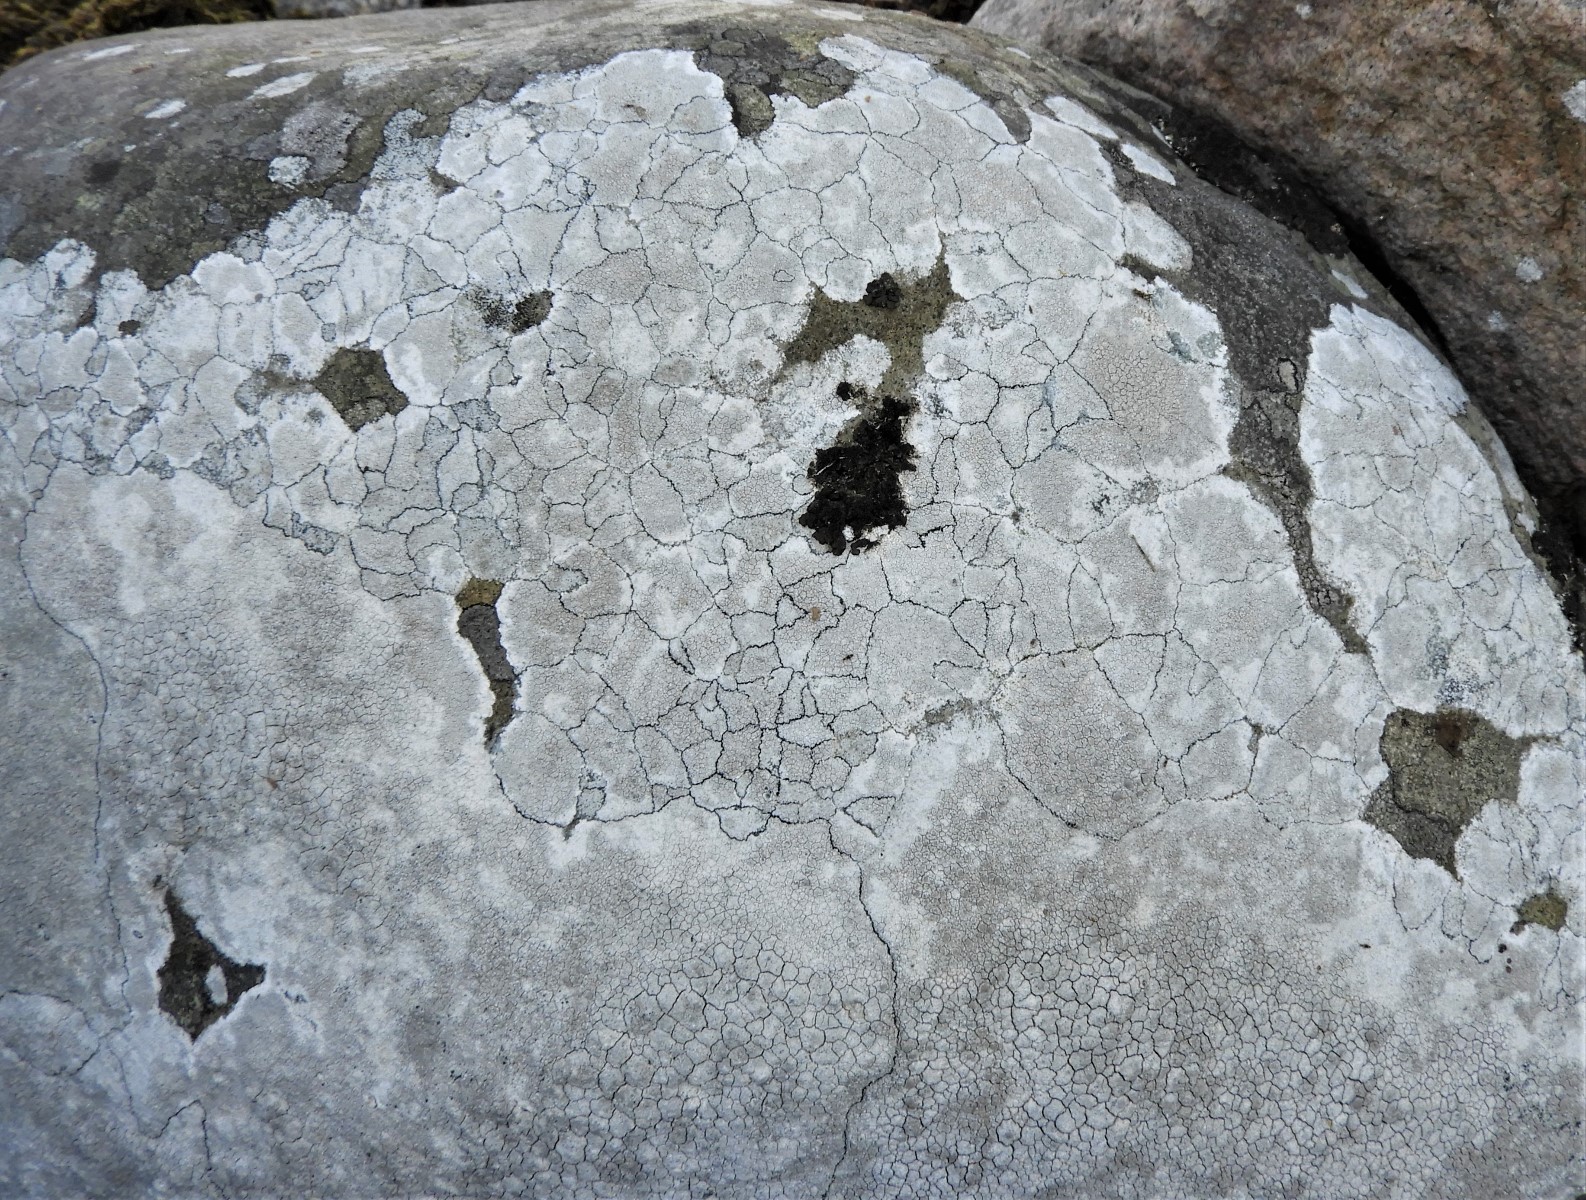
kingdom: Fungi
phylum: Ascomycota
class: Lecanoromycetes
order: Lecanorales
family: Lecanoraceae
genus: Glaucomaria
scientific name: Glaucomaria rupicola
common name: stengærde-kantskivelav
